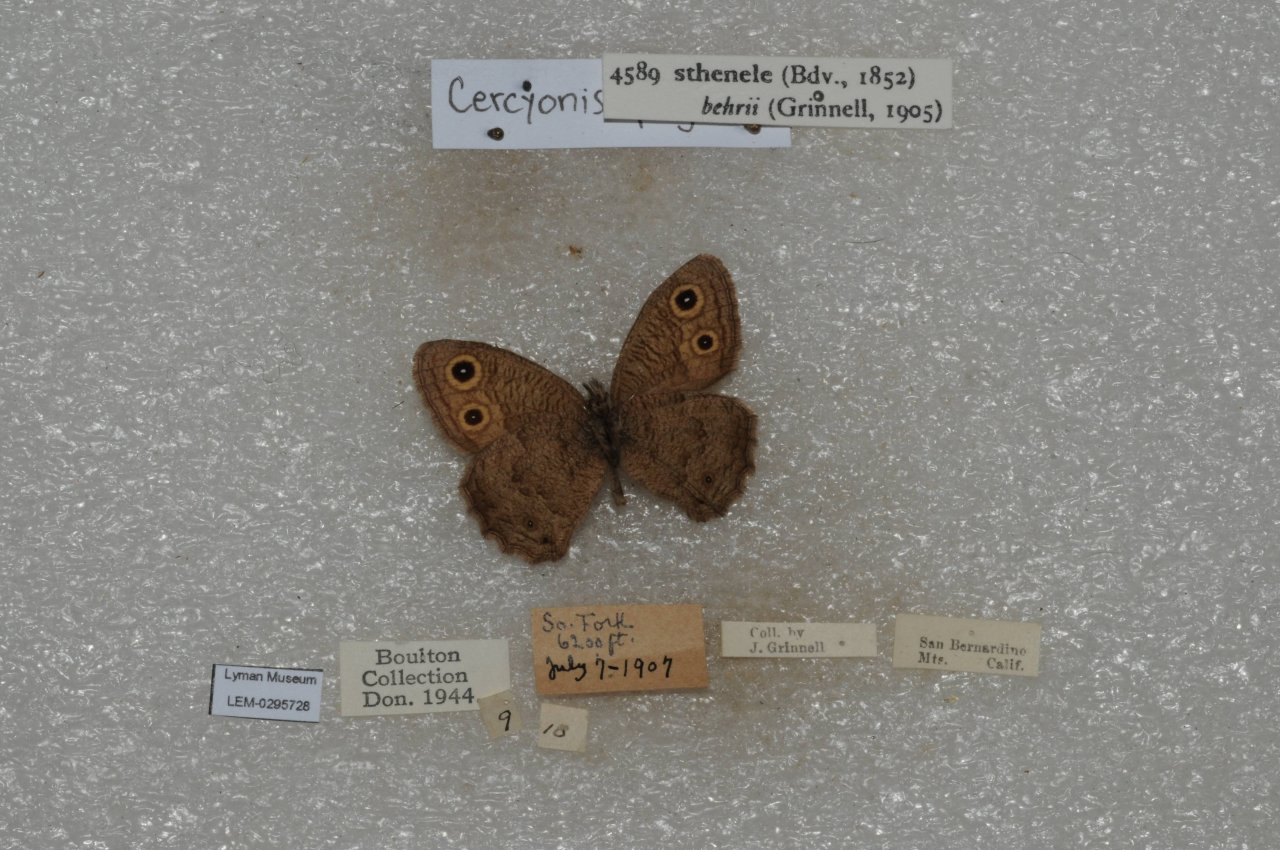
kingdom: Animalia
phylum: Arthropoda
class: Insecta
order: Lepidoptera
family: Nymphalidae
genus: Cercyonis
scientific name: Cercyonis sthenele
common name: Great Basin Wood-Nymph
